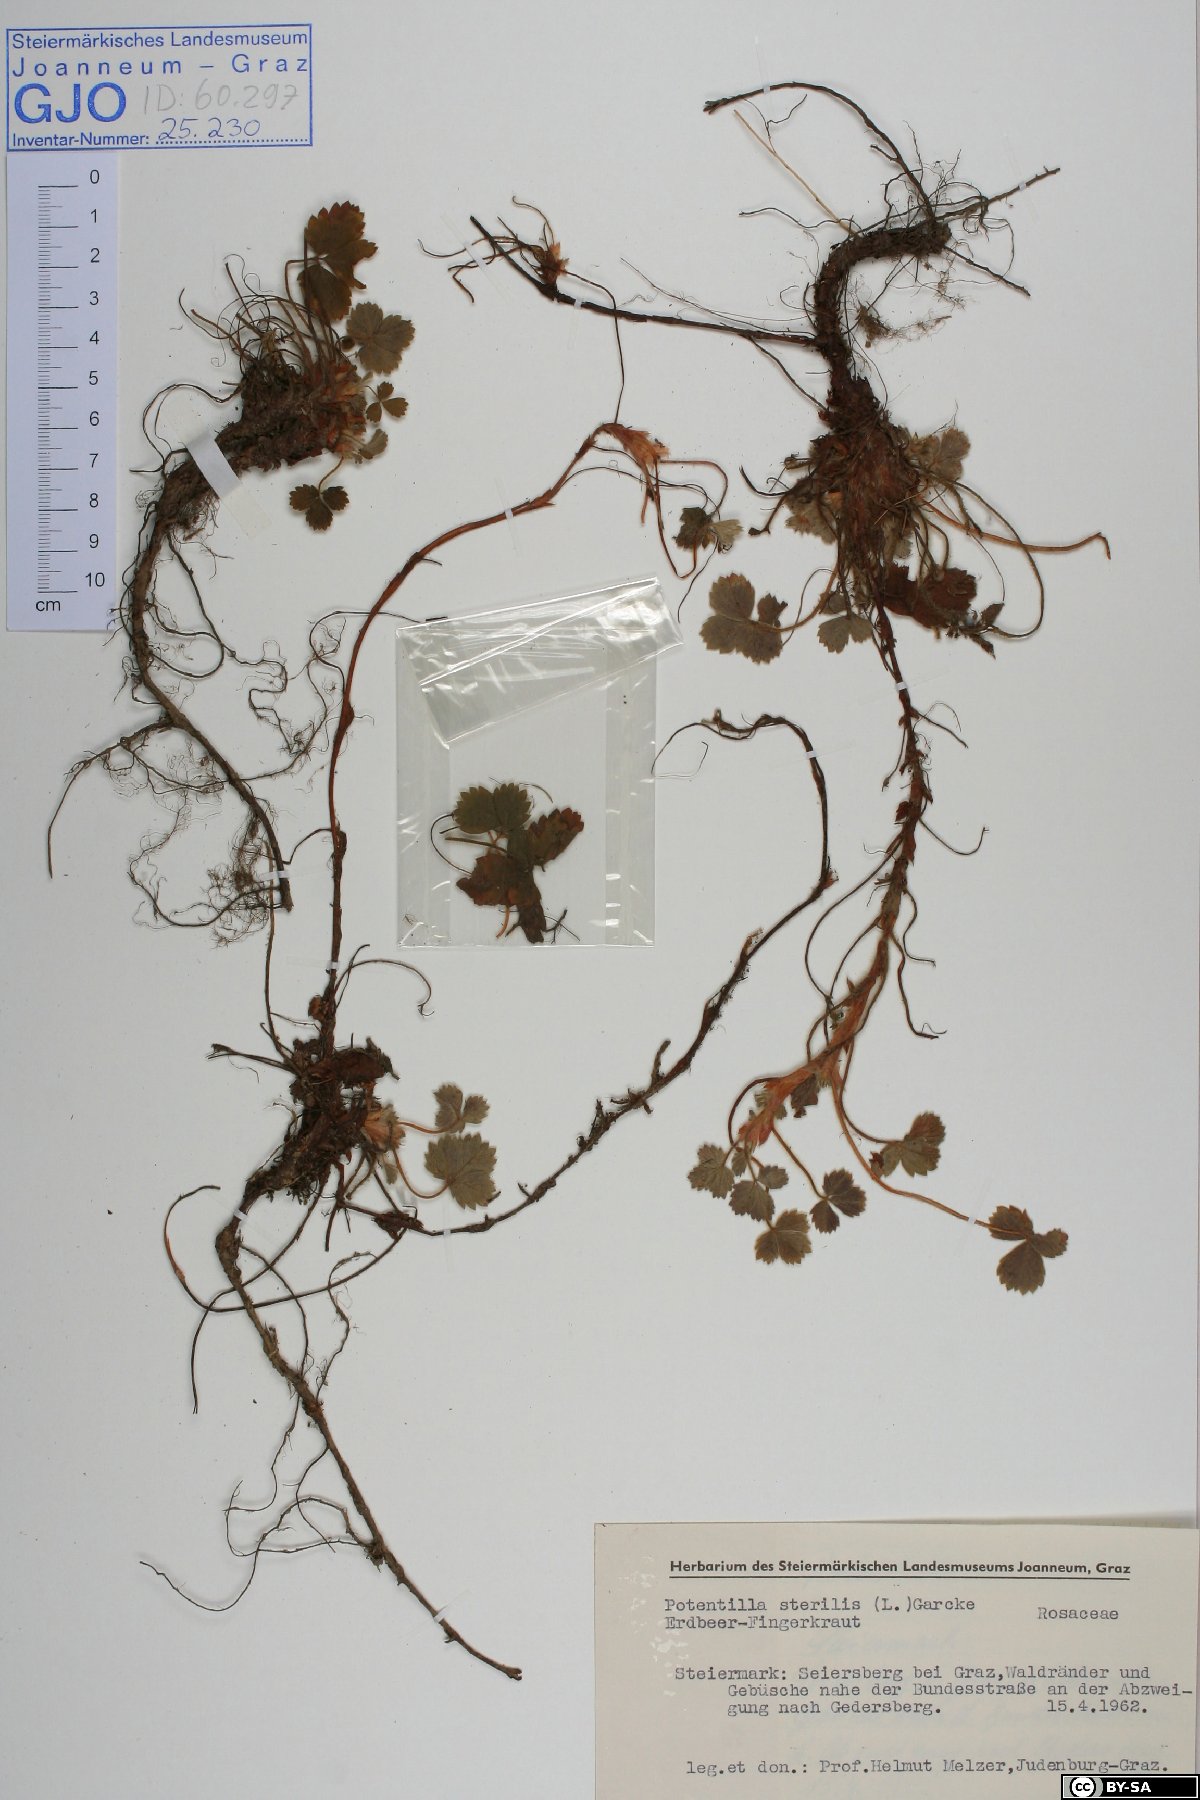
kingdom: Plantae
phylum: Tracheophyta
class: Magnoliopsida
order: Rosales
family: Rosaceae
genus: Potentilla
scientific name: Potentilla sterilis
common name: Barren strawberry
